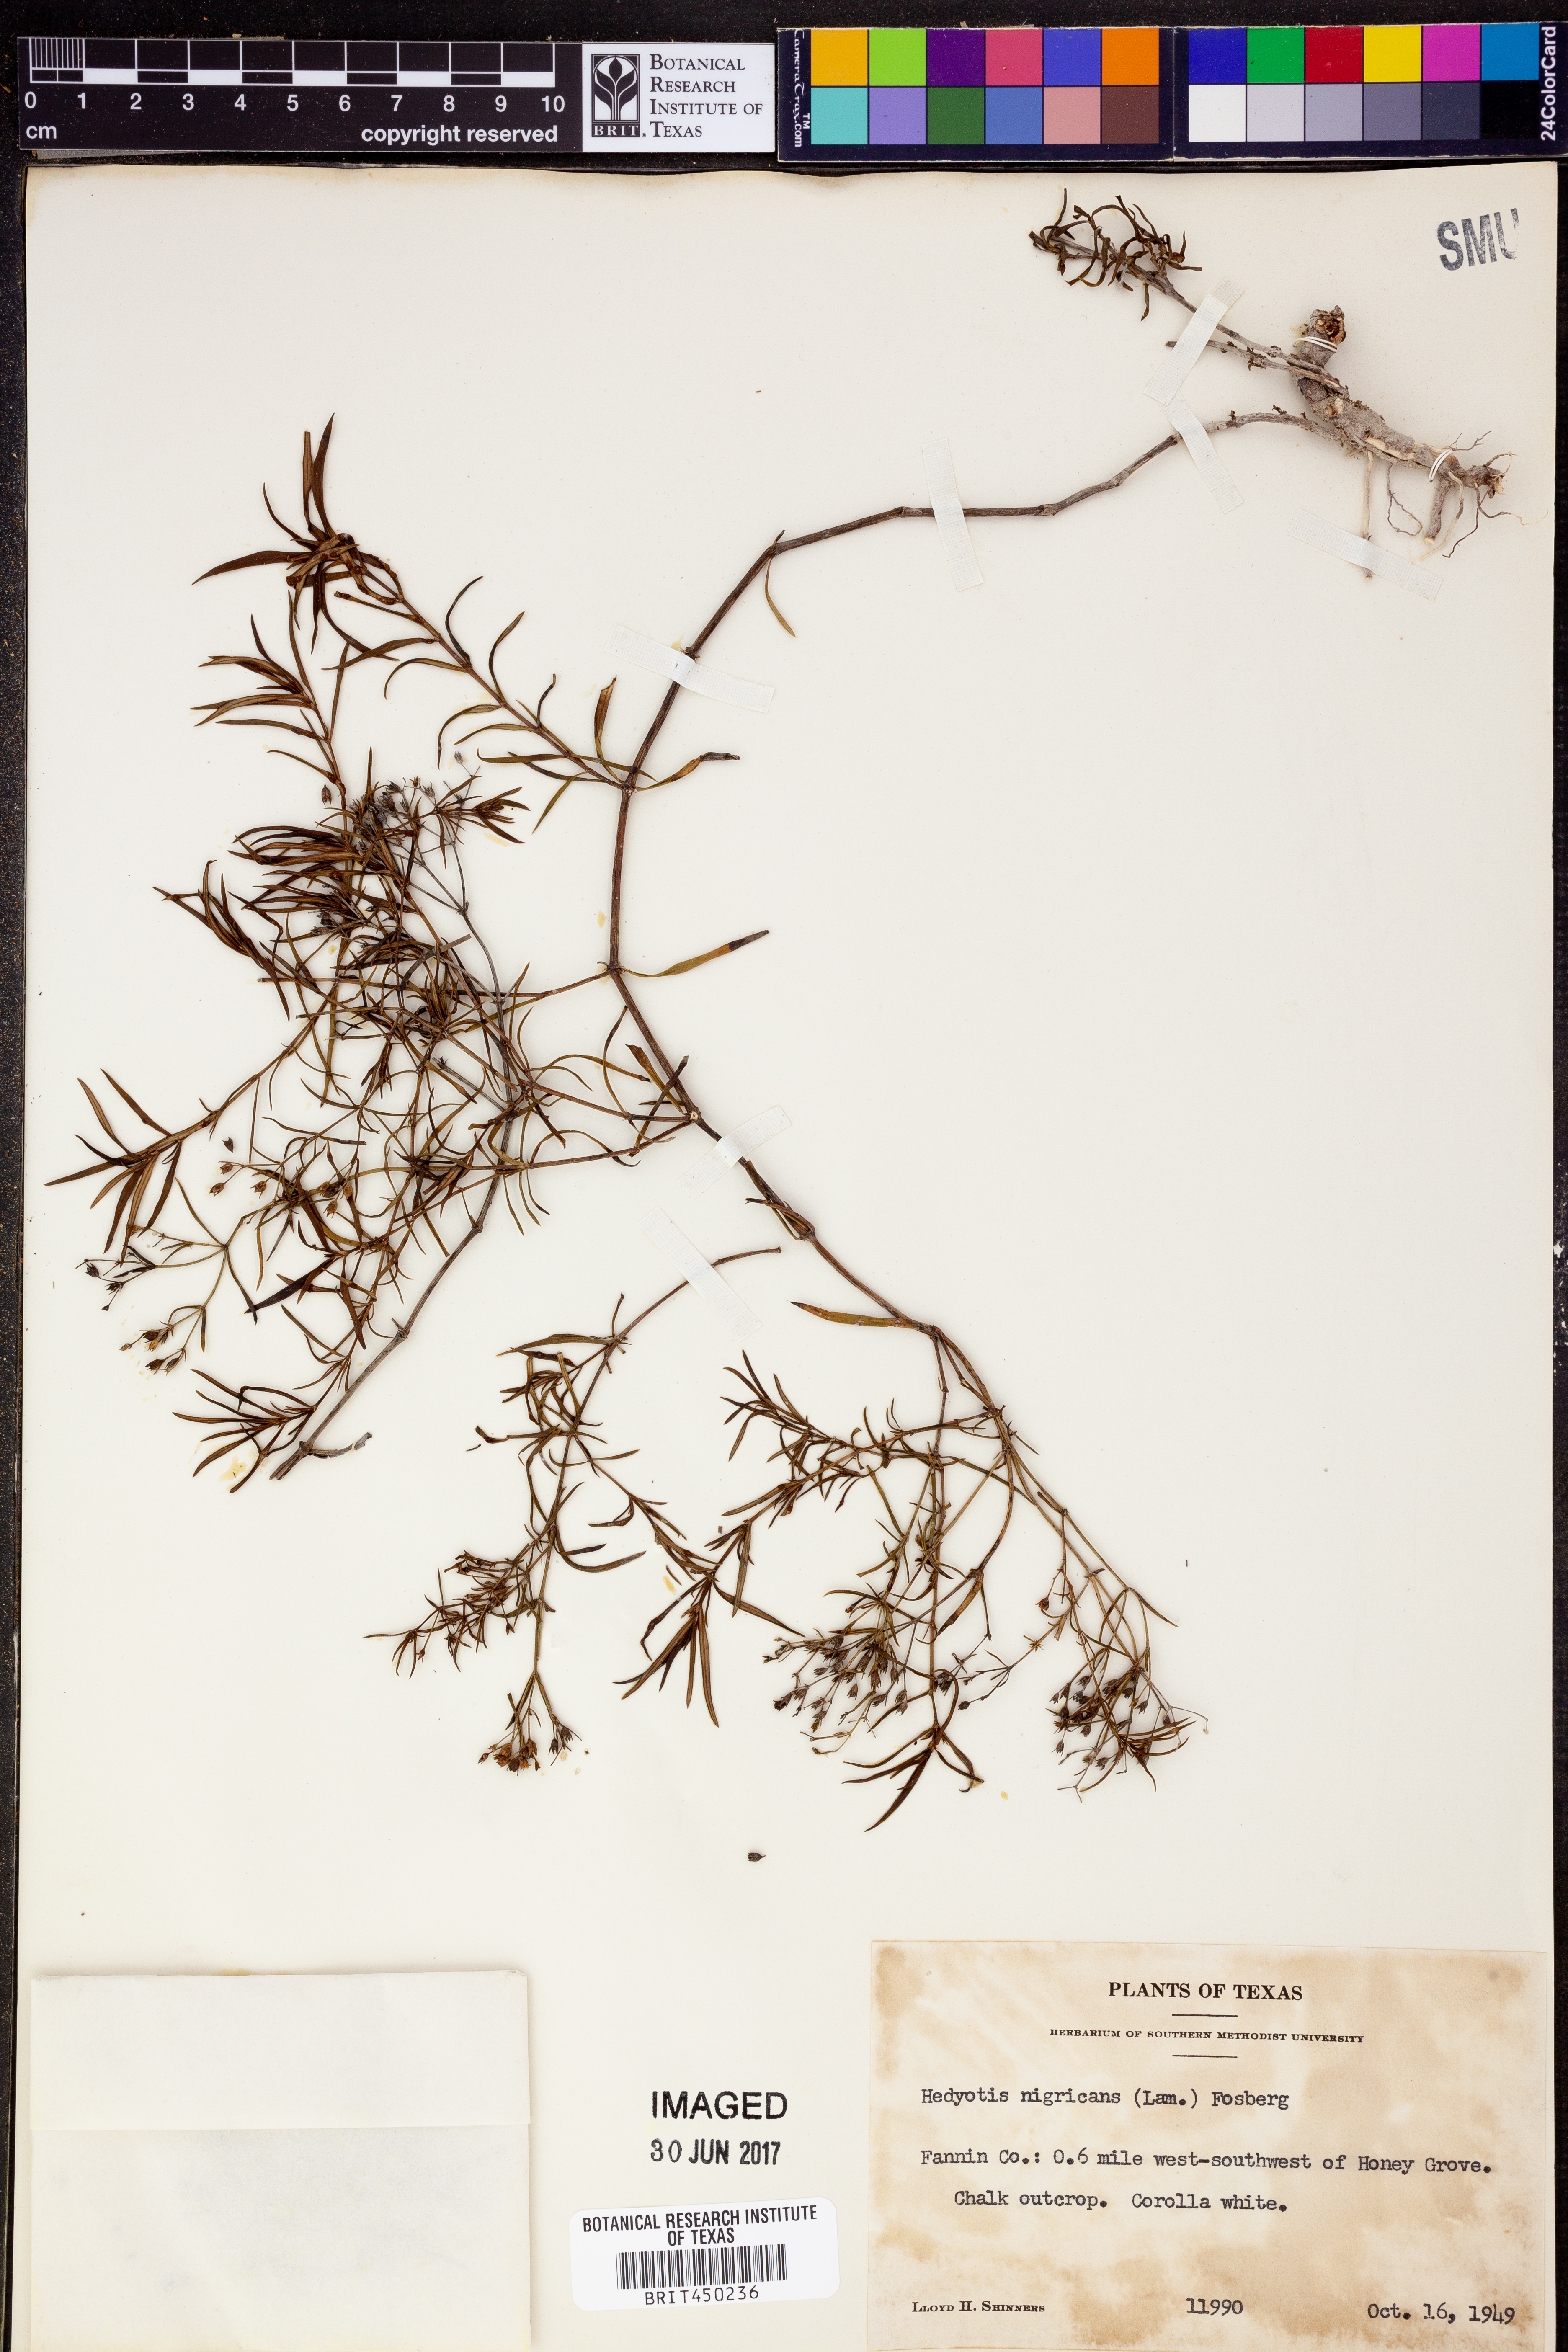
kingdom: Plantae
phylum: Tracheophyta
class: Magnoliopsida
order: Gentianales
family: Rubiaceae
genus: Stenaria
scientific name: Stenaria nigricans
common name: Diamondflowers
